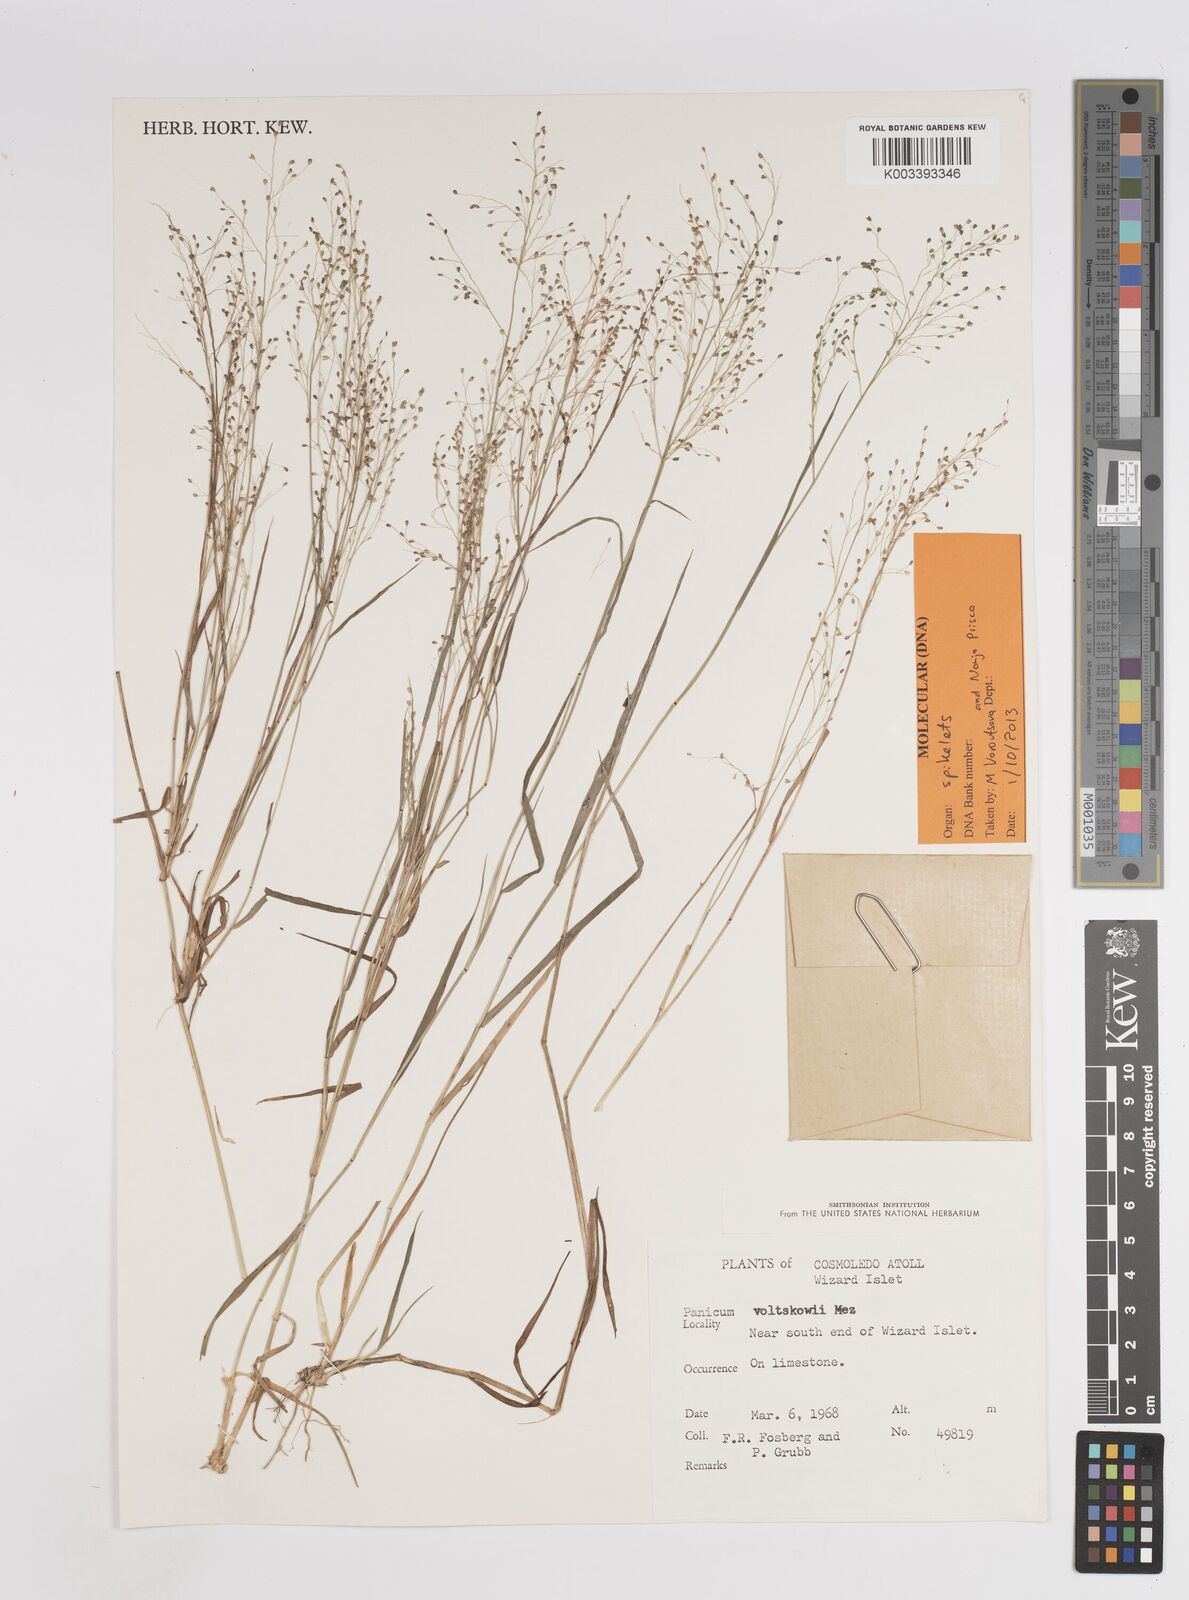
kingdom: Plantae
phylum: Tracheophyta
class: Liliopsida
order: Poales
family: Poaceae
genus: Panicum
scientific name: Panicum voeltzkowii
